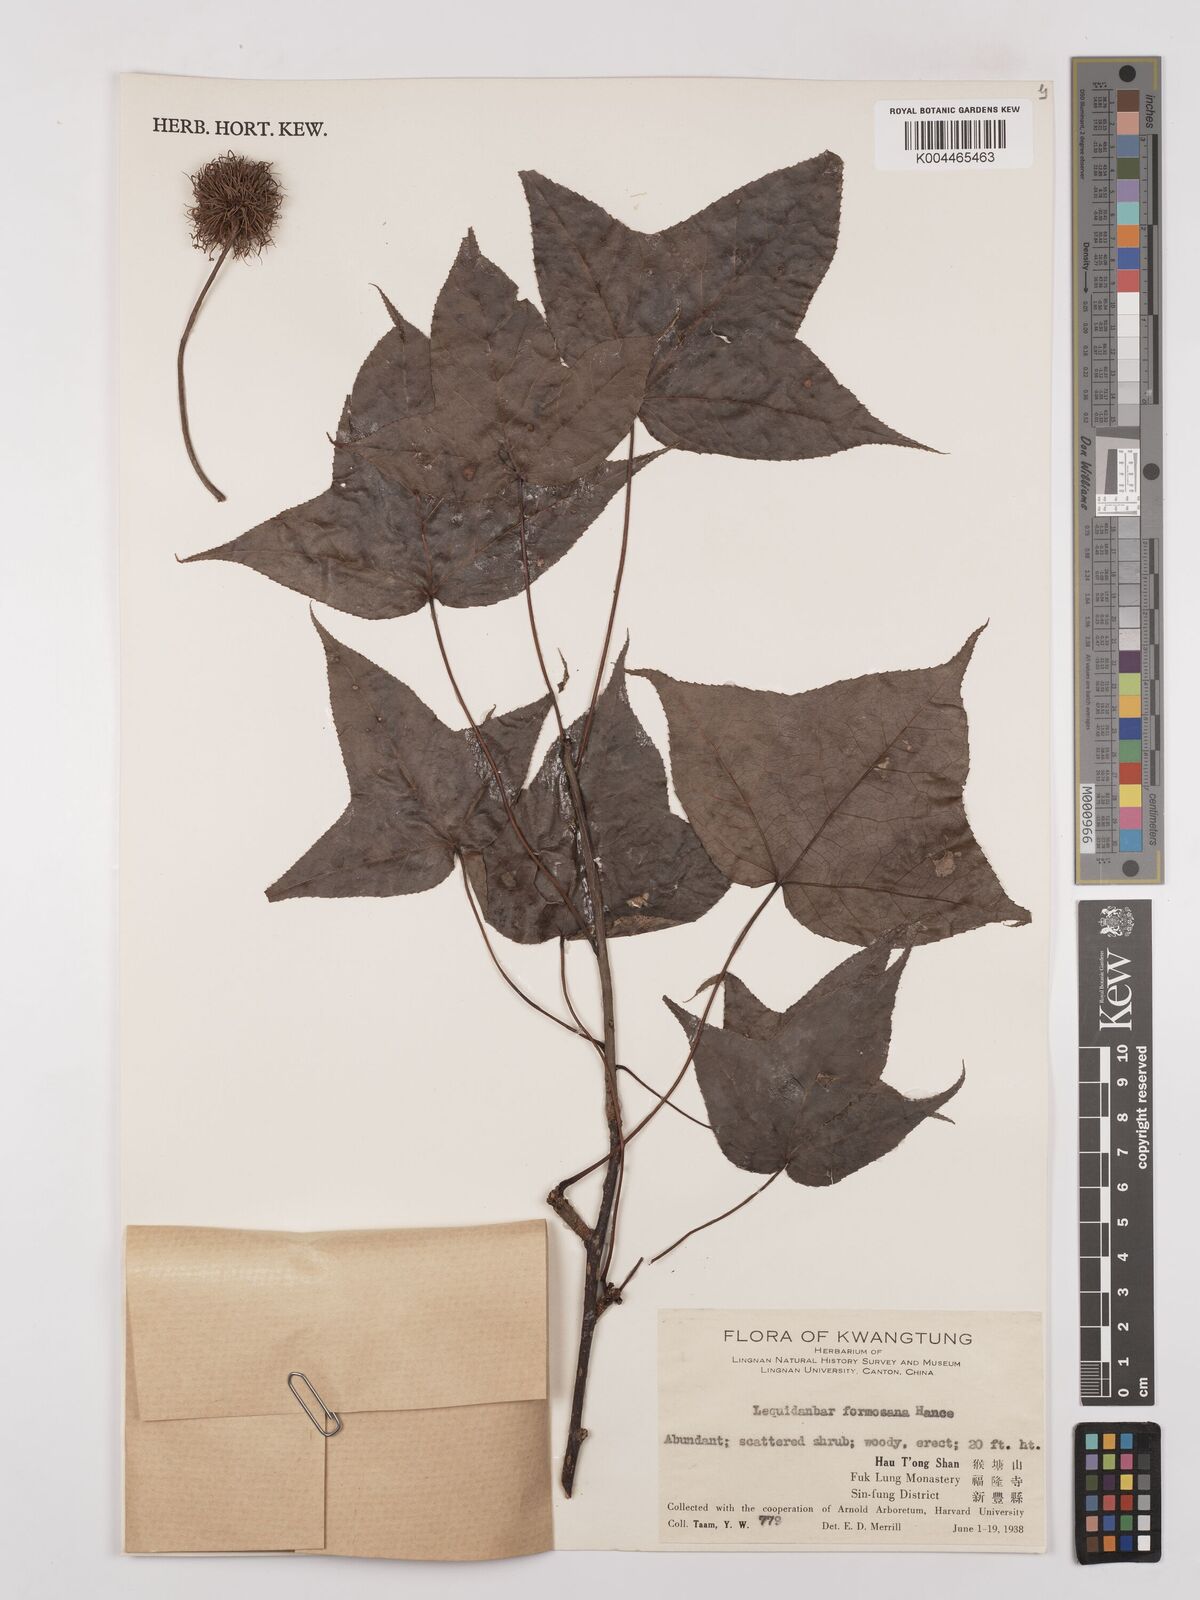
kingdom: Plantae
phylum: Tracheophyta
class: Magnoliopsida
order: Saxifragales
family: Altingiaceae
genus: Liquidambar
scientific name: Liquidambar formosana
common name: Chinese sweet gum
